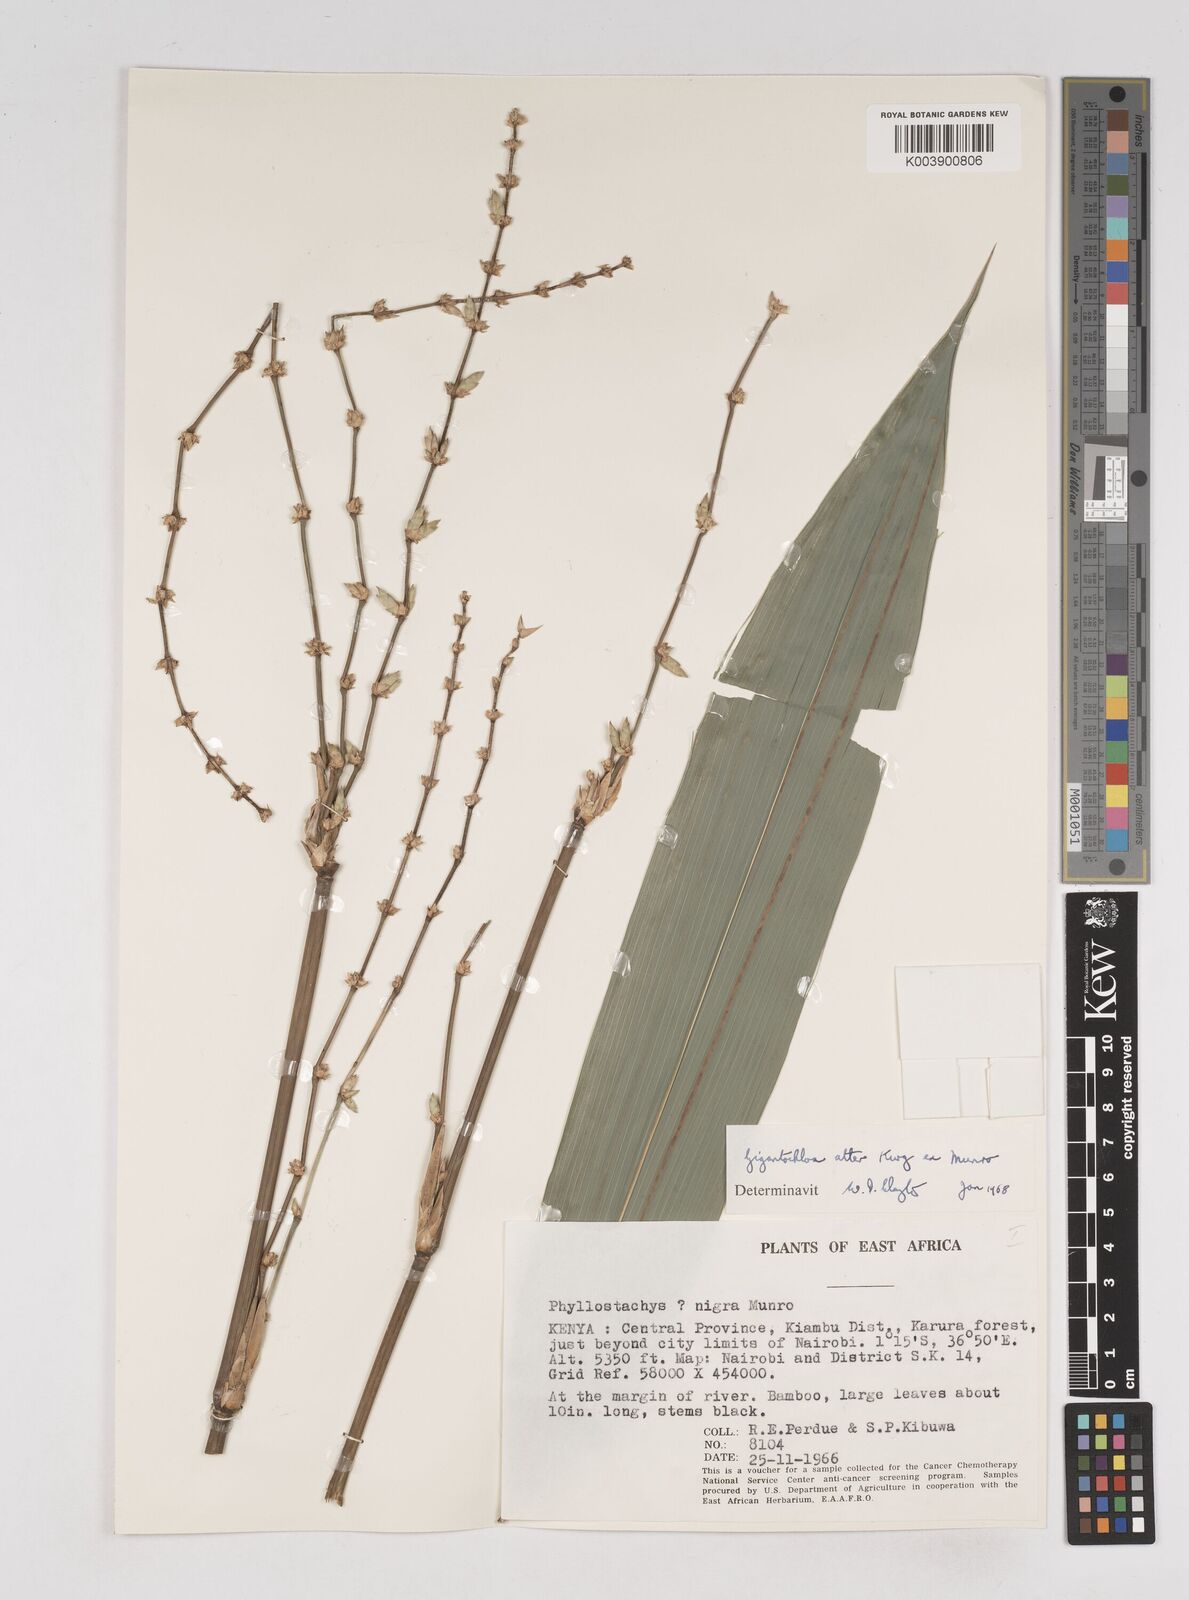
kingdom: Plantae
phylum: Tracheophyta
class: Liliopsida
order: Poales
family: Poaceae
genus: Gigantochloa
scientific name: Gigantochloa atter
